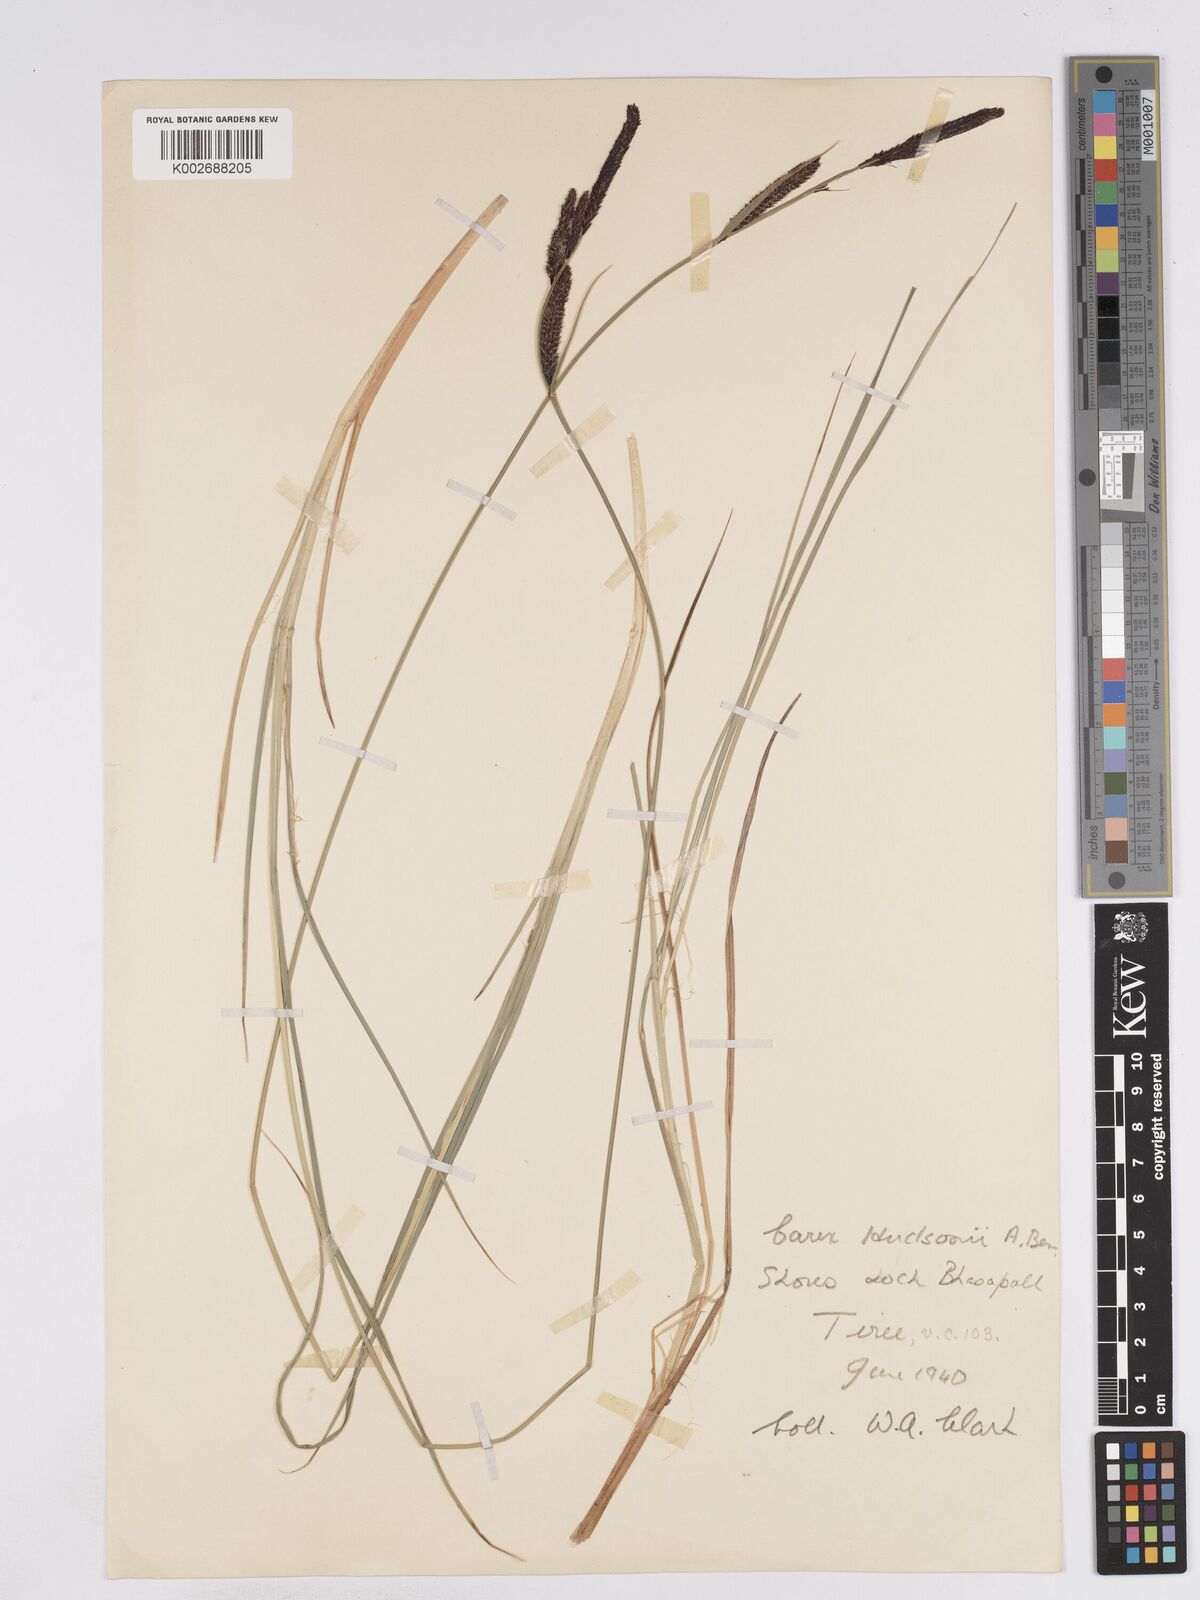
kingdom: Plantae
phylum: Tracheophyta
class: Liliopsida
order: Poales
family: Cyperaceae
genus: Carex
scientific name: Carex elata
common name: Tufted sedge
